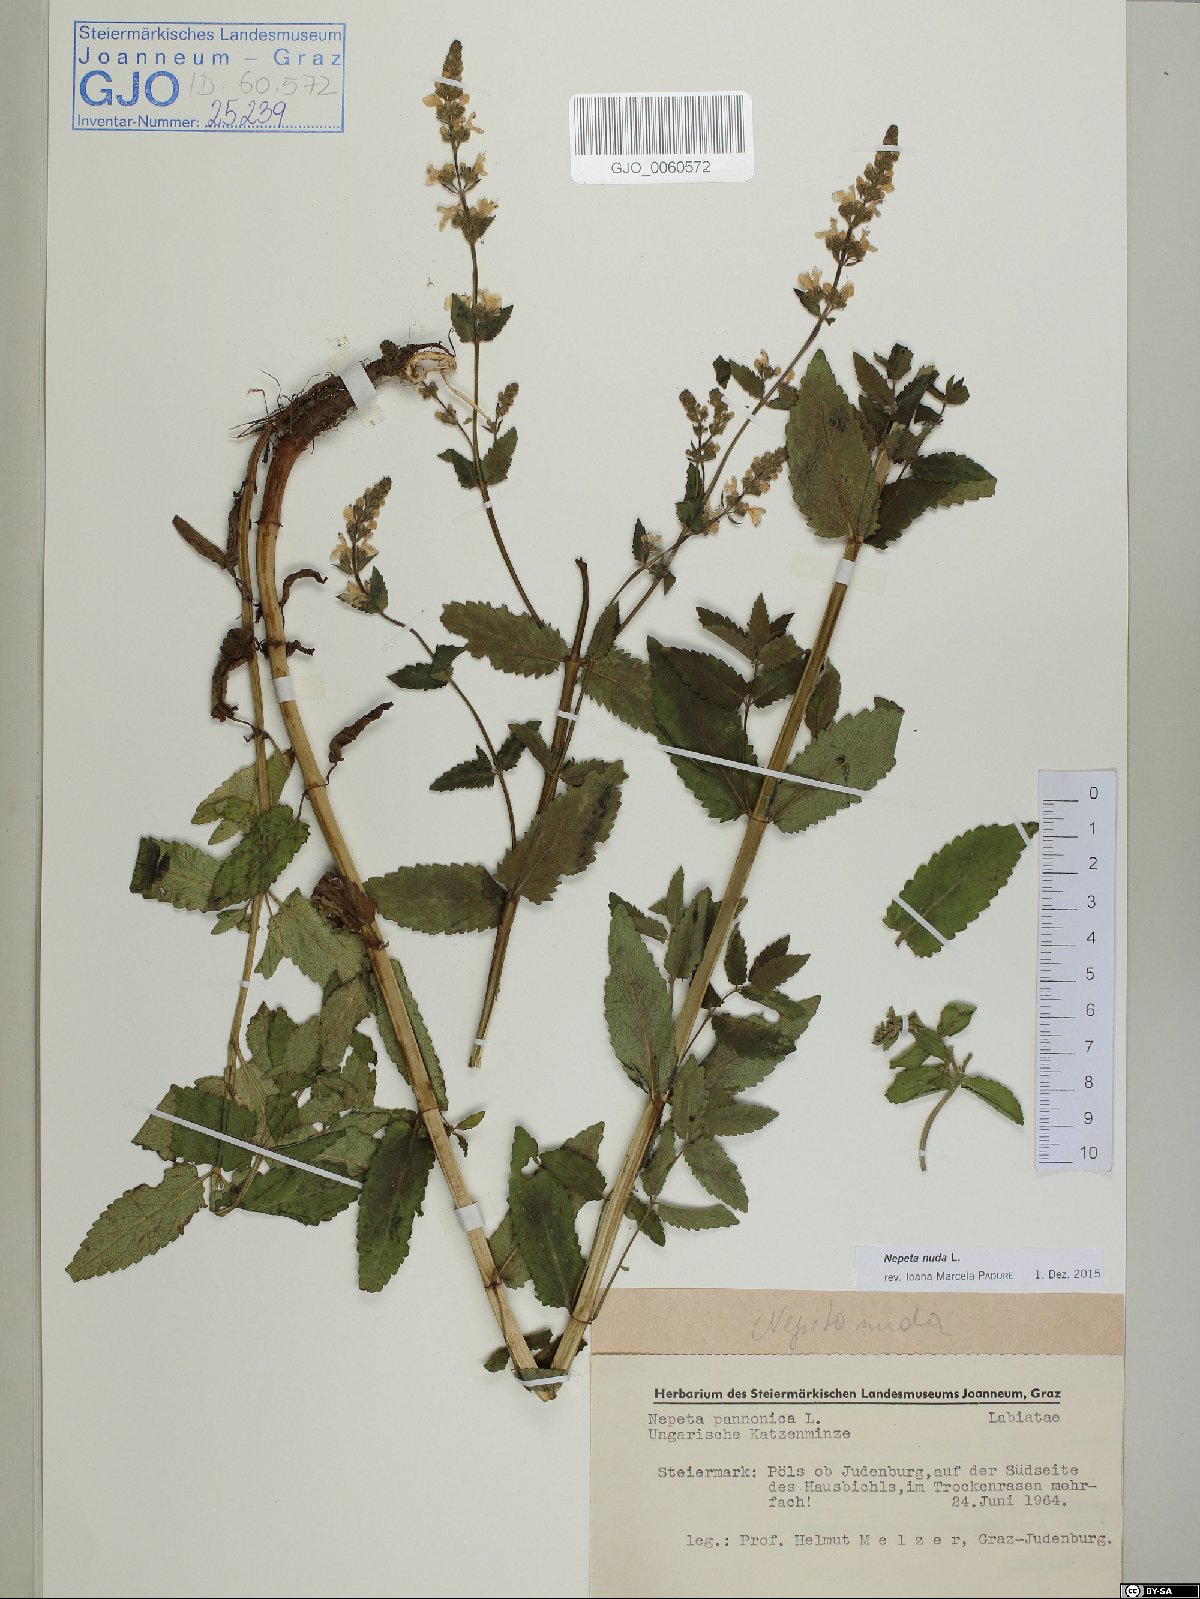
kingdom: Plantae
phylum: Tracheophyta
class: Magnoliopsida
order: Lamiales
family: Lamiaceae
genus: Nepeta
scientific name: Nepeta nuda
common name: Hairless catmint
